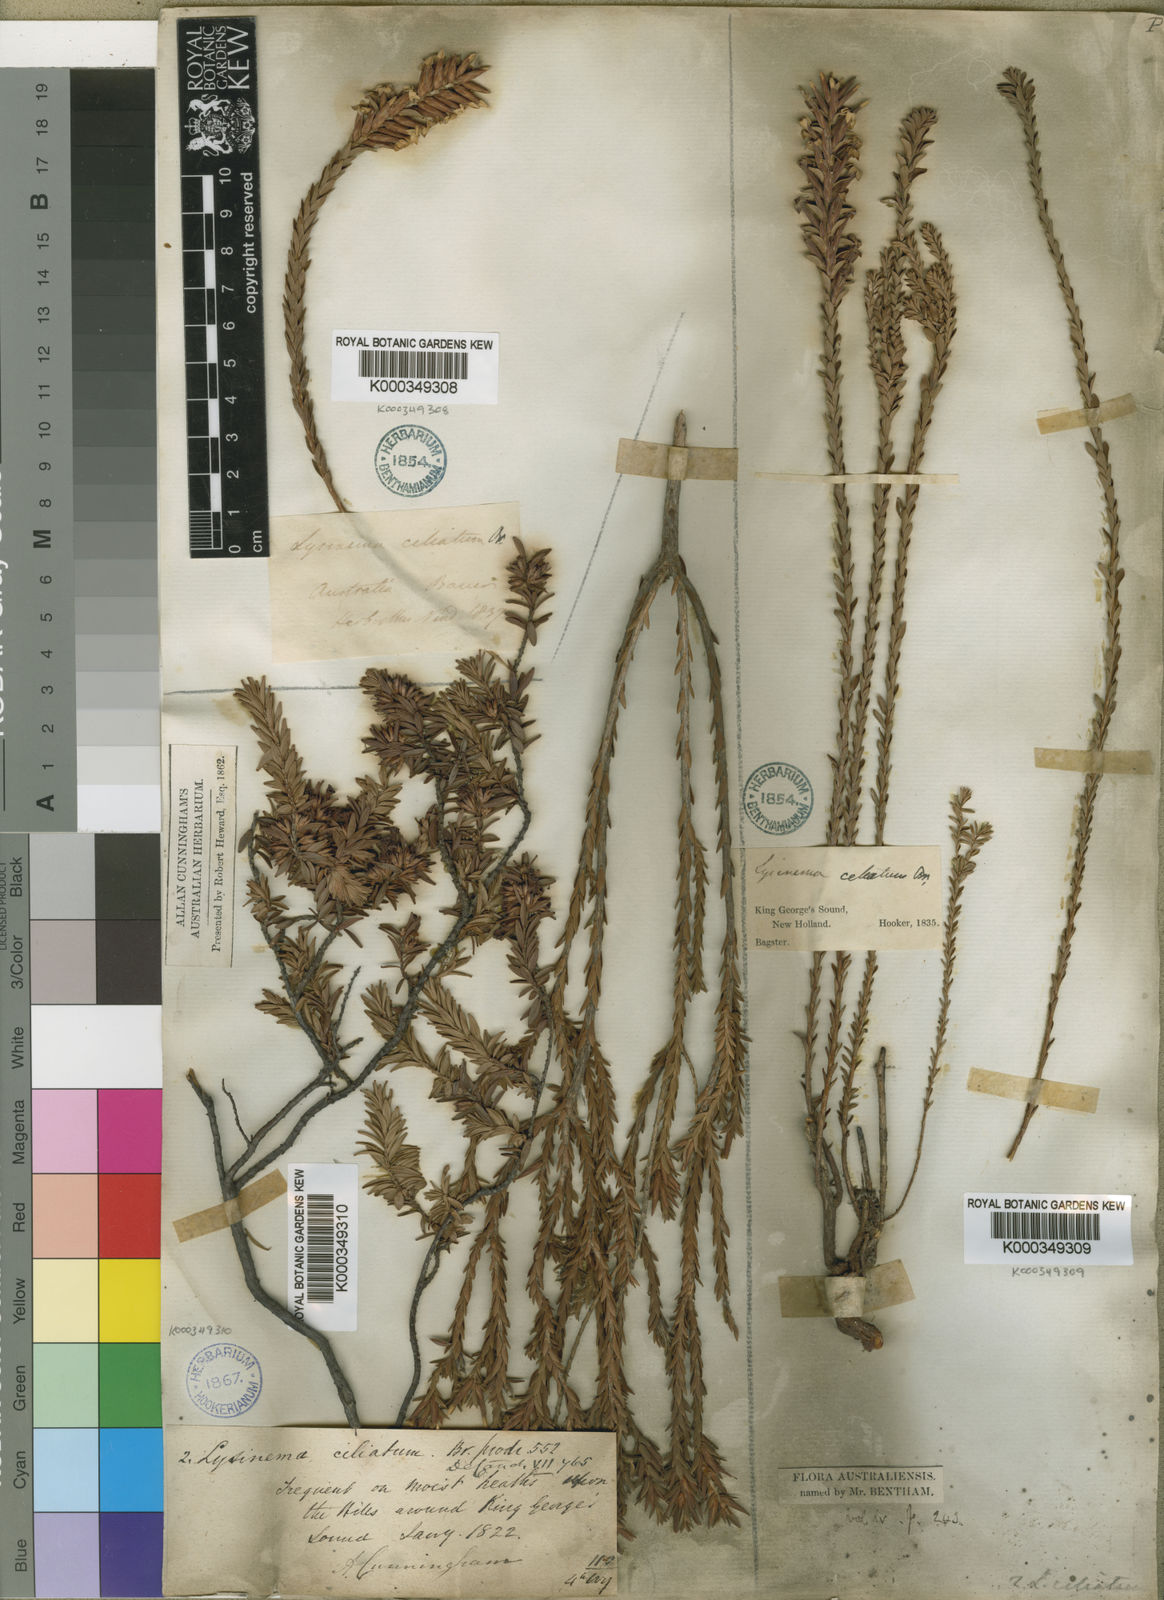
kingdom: Plantae
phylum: Tracheophyta
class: Magnoliopsida
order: Ericales
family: Ericaceae
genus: Lysinema
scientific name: Lysinema ciliatum
